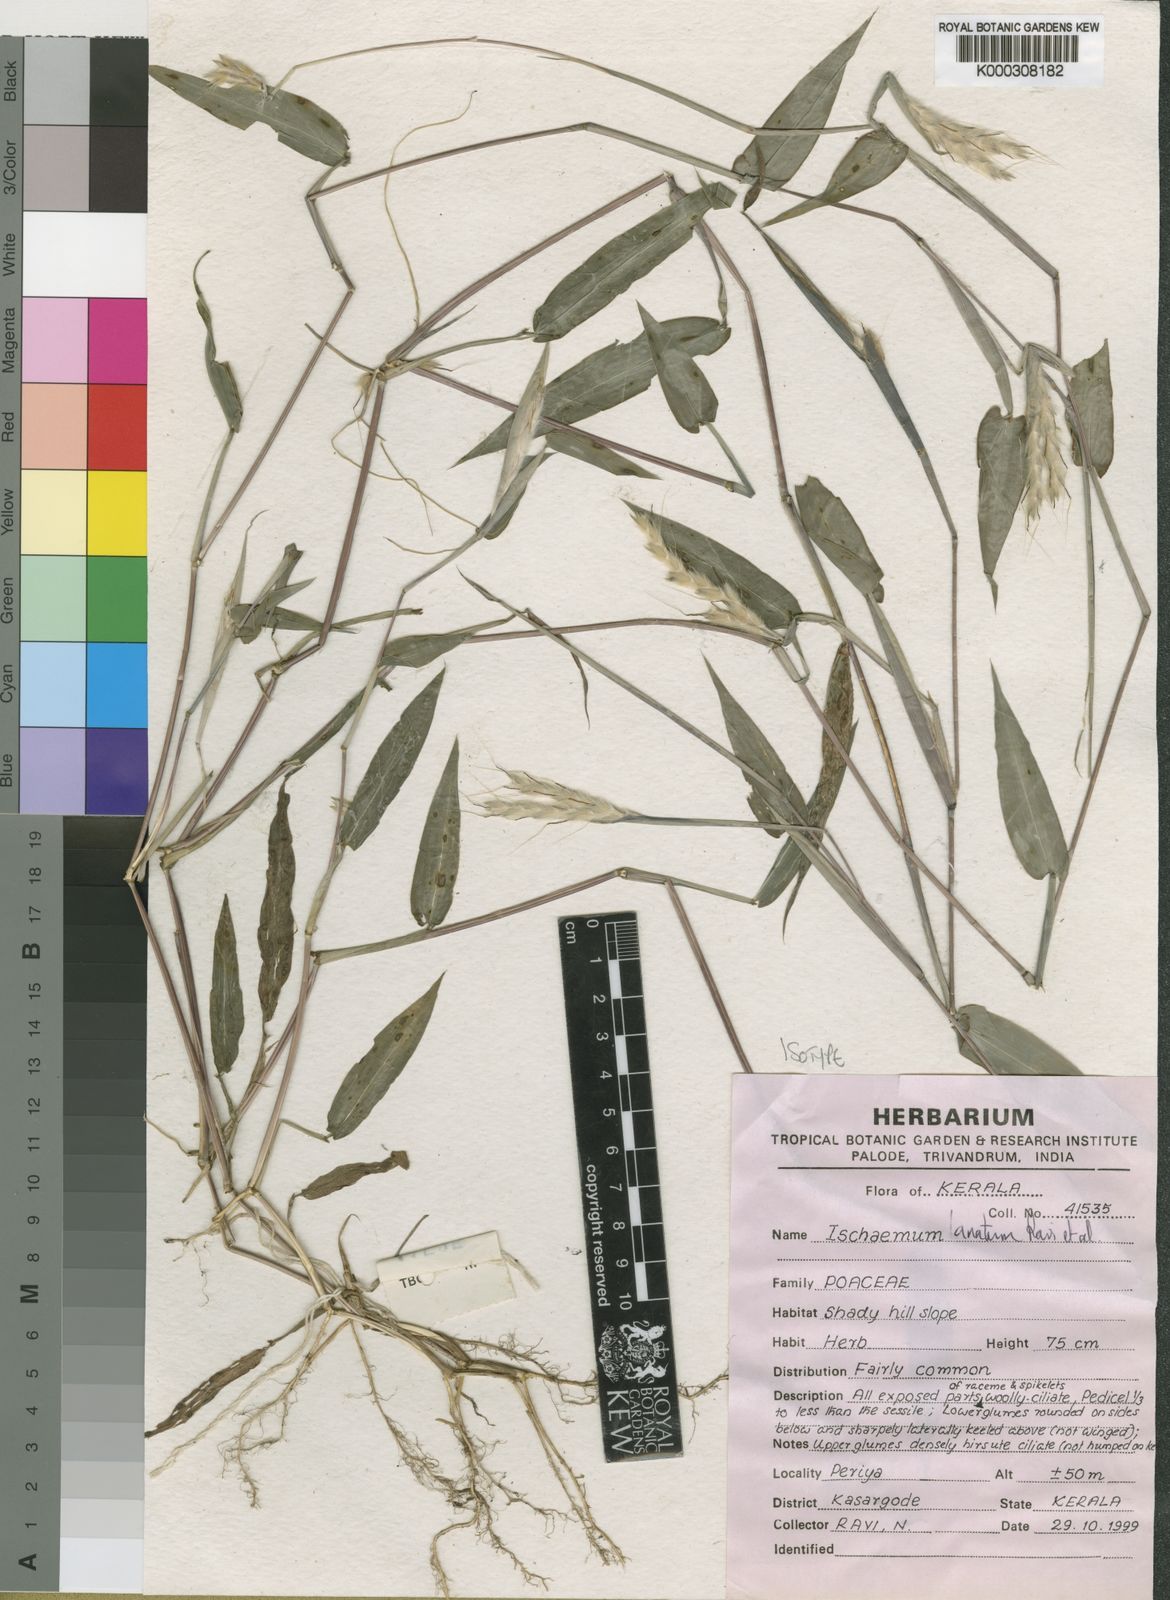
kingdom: Plantae
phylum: Tracheophyta
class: Liliopsida
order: Poales
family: Poaceae
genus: Ischaemum
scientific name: Ischaemum lanatum
